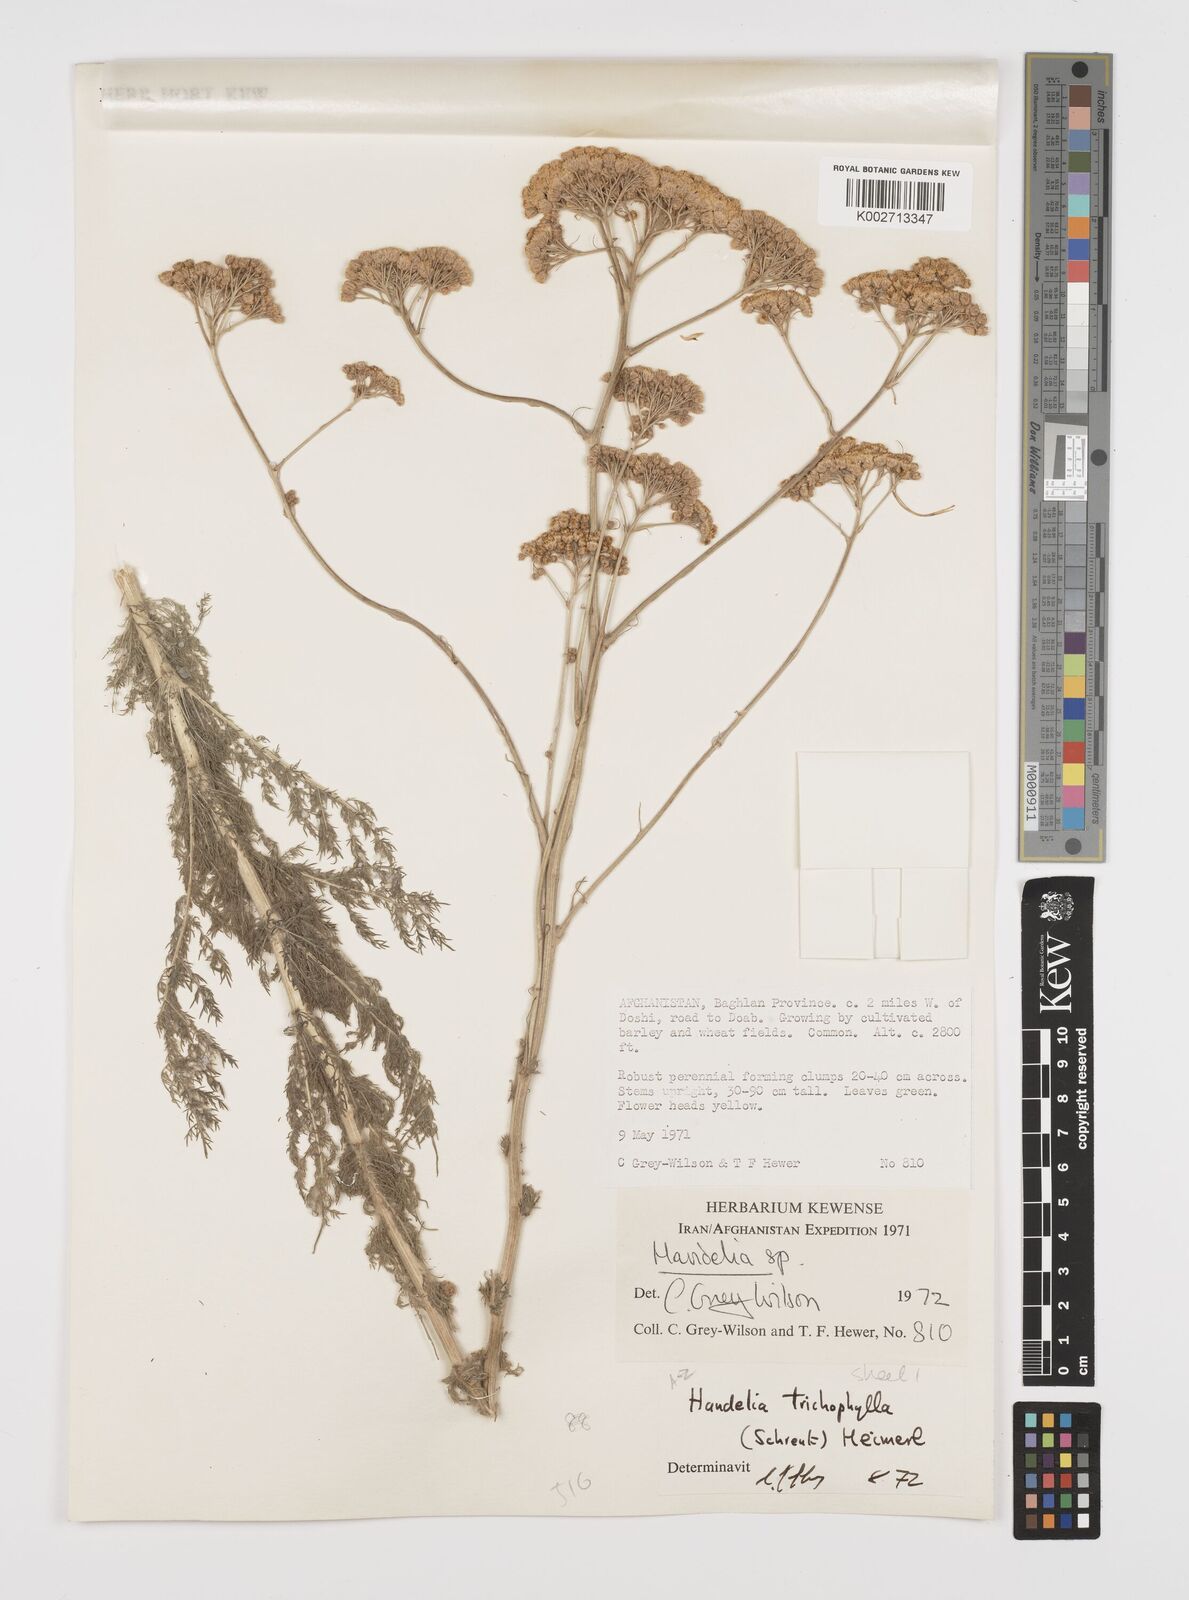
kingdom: Plantae
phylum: Tracheophyta
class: Magnoliopsida
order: Asterales
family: Asteraceae
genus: Handelia
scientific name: Handelia trichophylla
